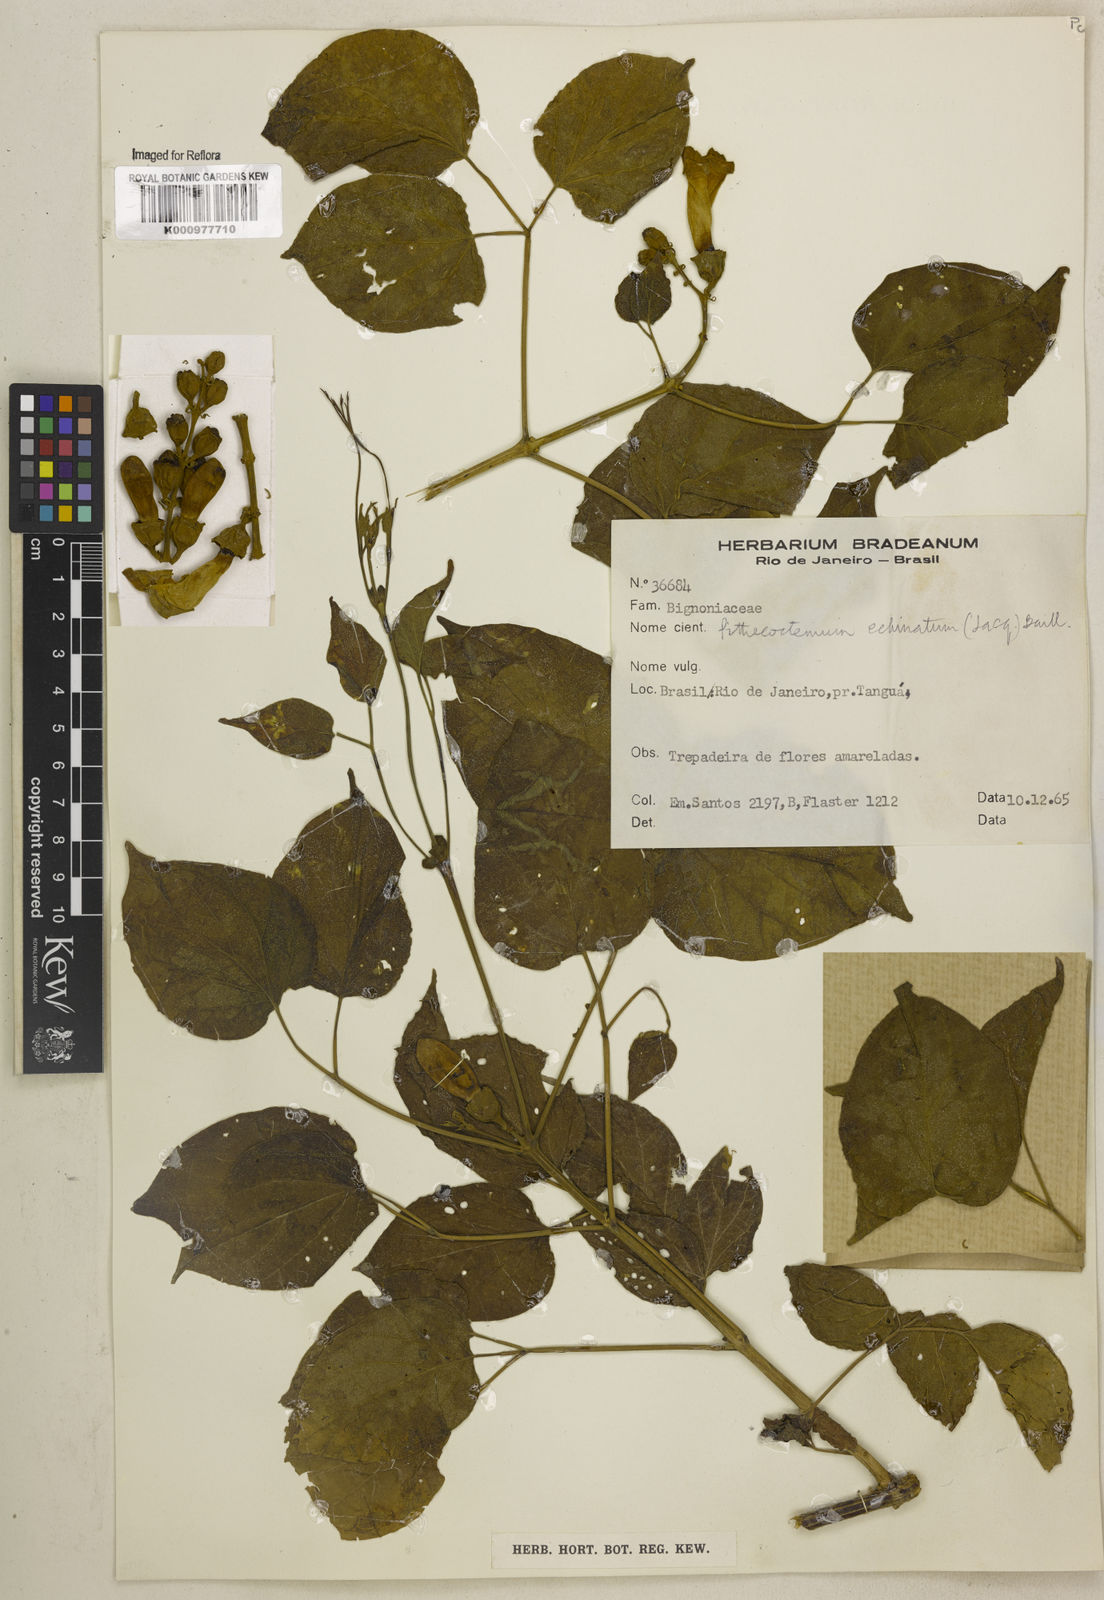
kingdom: Plantae
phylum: Tracheophyta
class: Magnoliopsida
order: Lamiales
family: Bignoniaceae
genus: Amphilophium
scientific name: Amphilophium crucigerum
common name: Monkey comb
